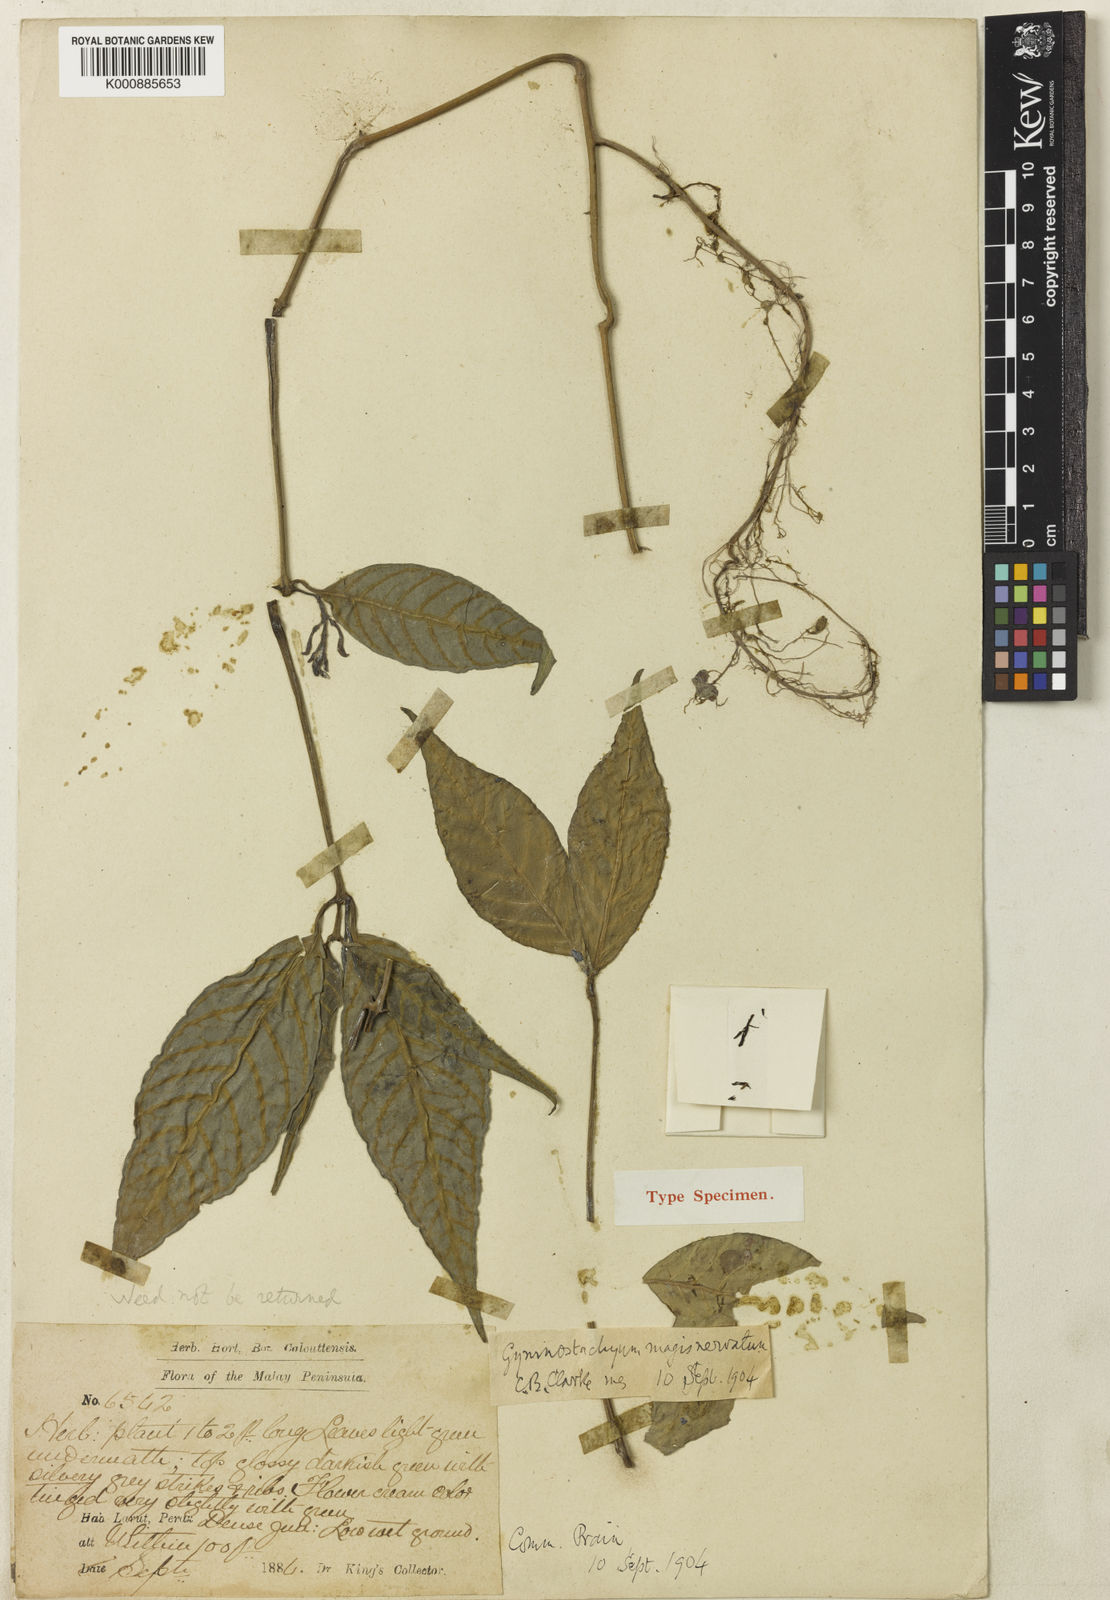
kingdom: Plantae
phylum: Tracheophyta
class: Magnoliopsida
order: Lamiales
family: Acanthaceae
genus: Gymnostachyum
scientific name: Gymnostachyum magis-nervatum
